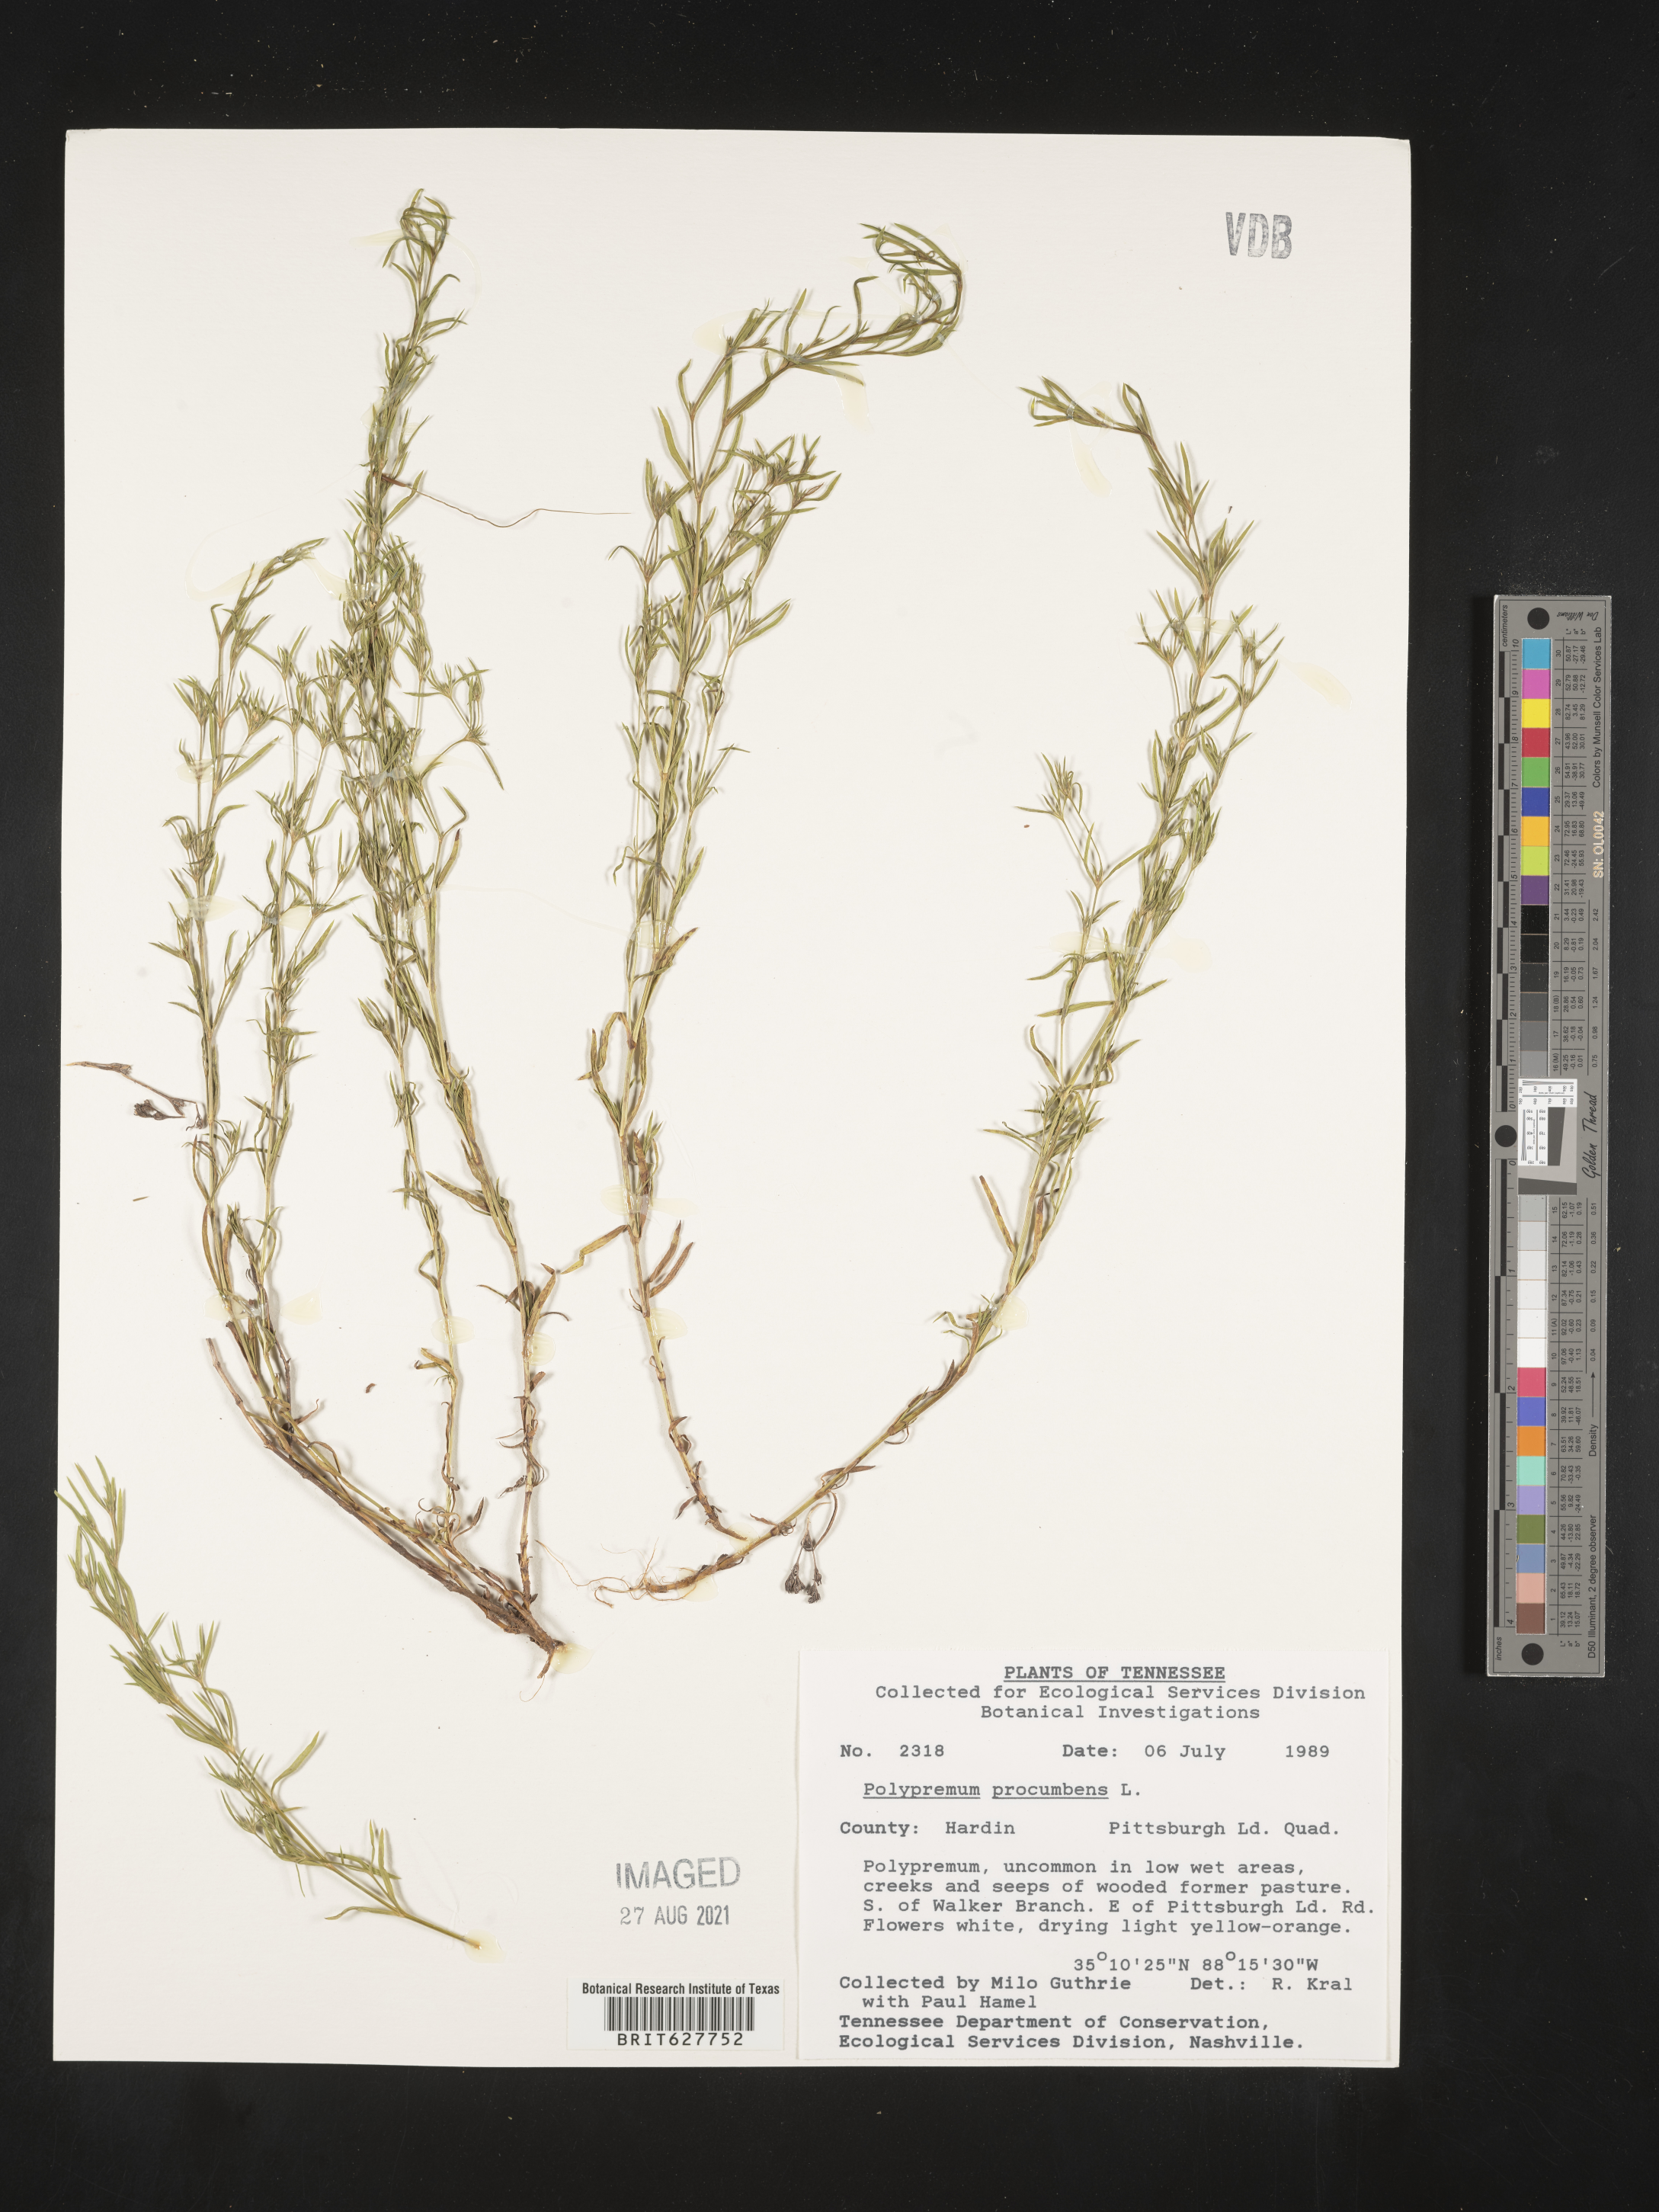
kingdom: Plantae
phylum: Tracheophyta
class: Magnoliopsida
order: Lamiales
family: Tetrachondraceae
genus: Polypremum
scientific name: Polypremum procumbens
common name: Juniper-leaf
